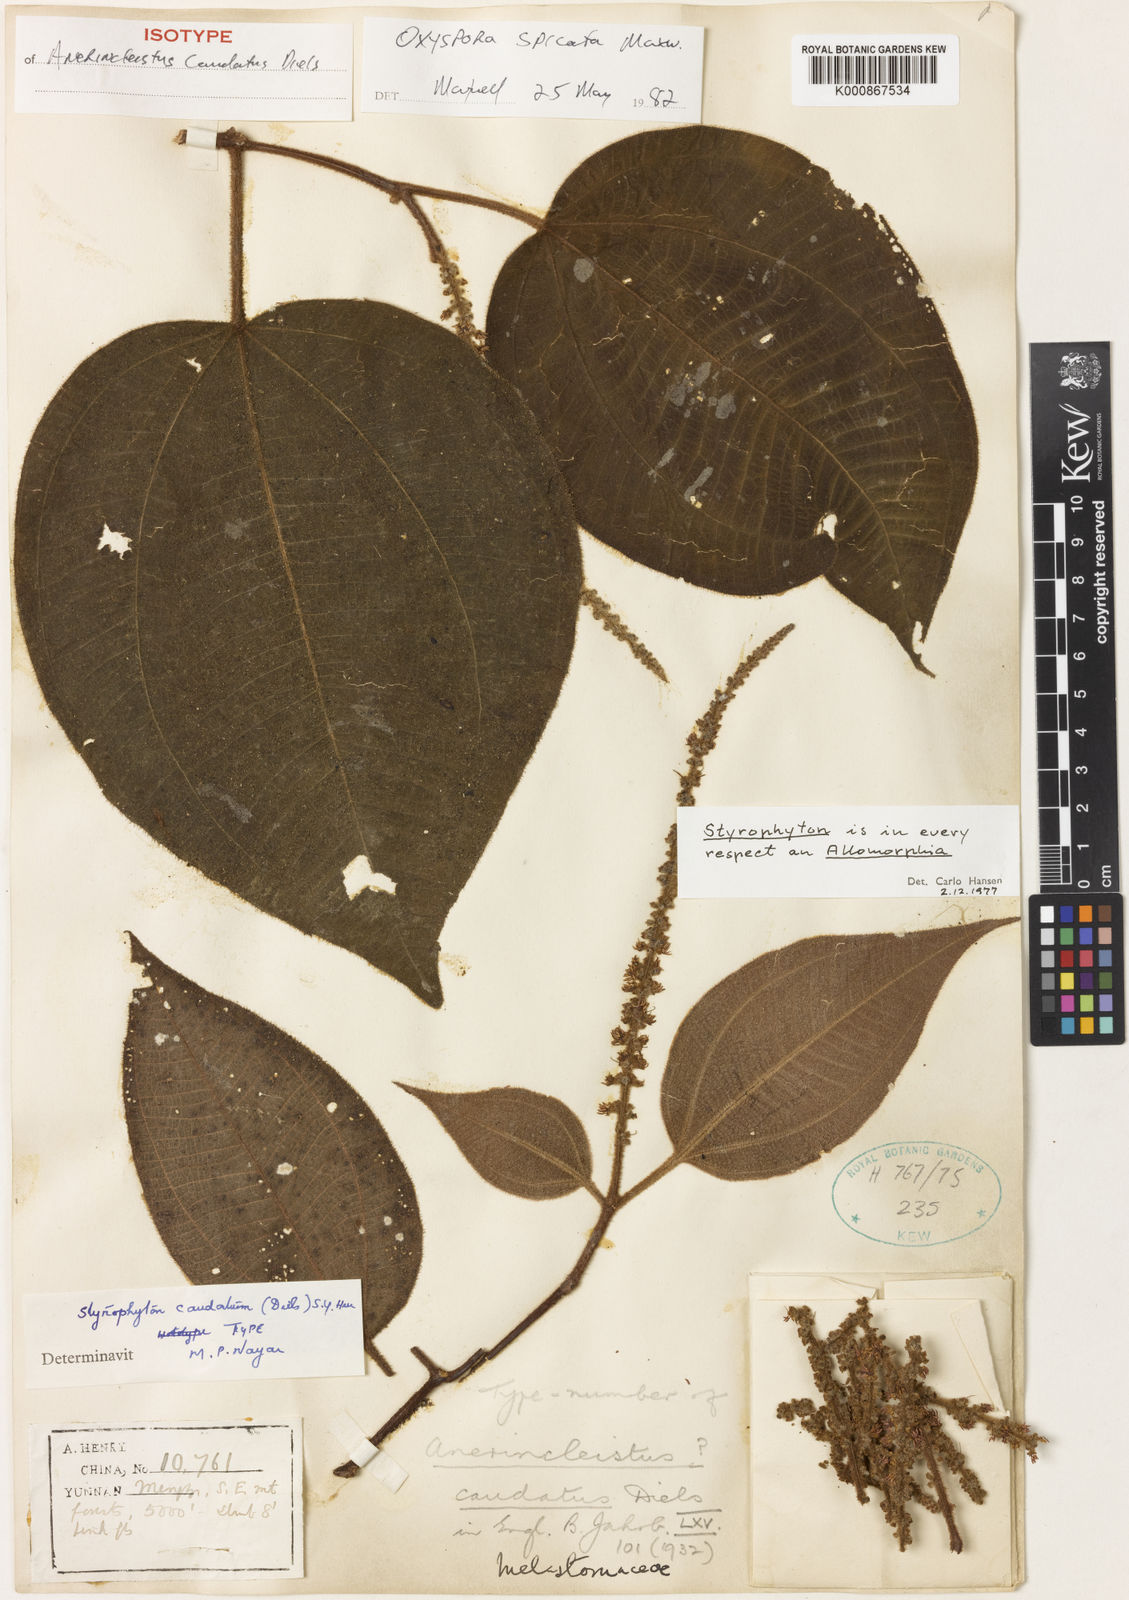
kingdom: Plantae
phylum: Tracheophyta
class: Magnoliopsida
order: Myrtales
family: Melastomataceae
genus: Styrophyton
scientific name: Styrophyton caudatum
